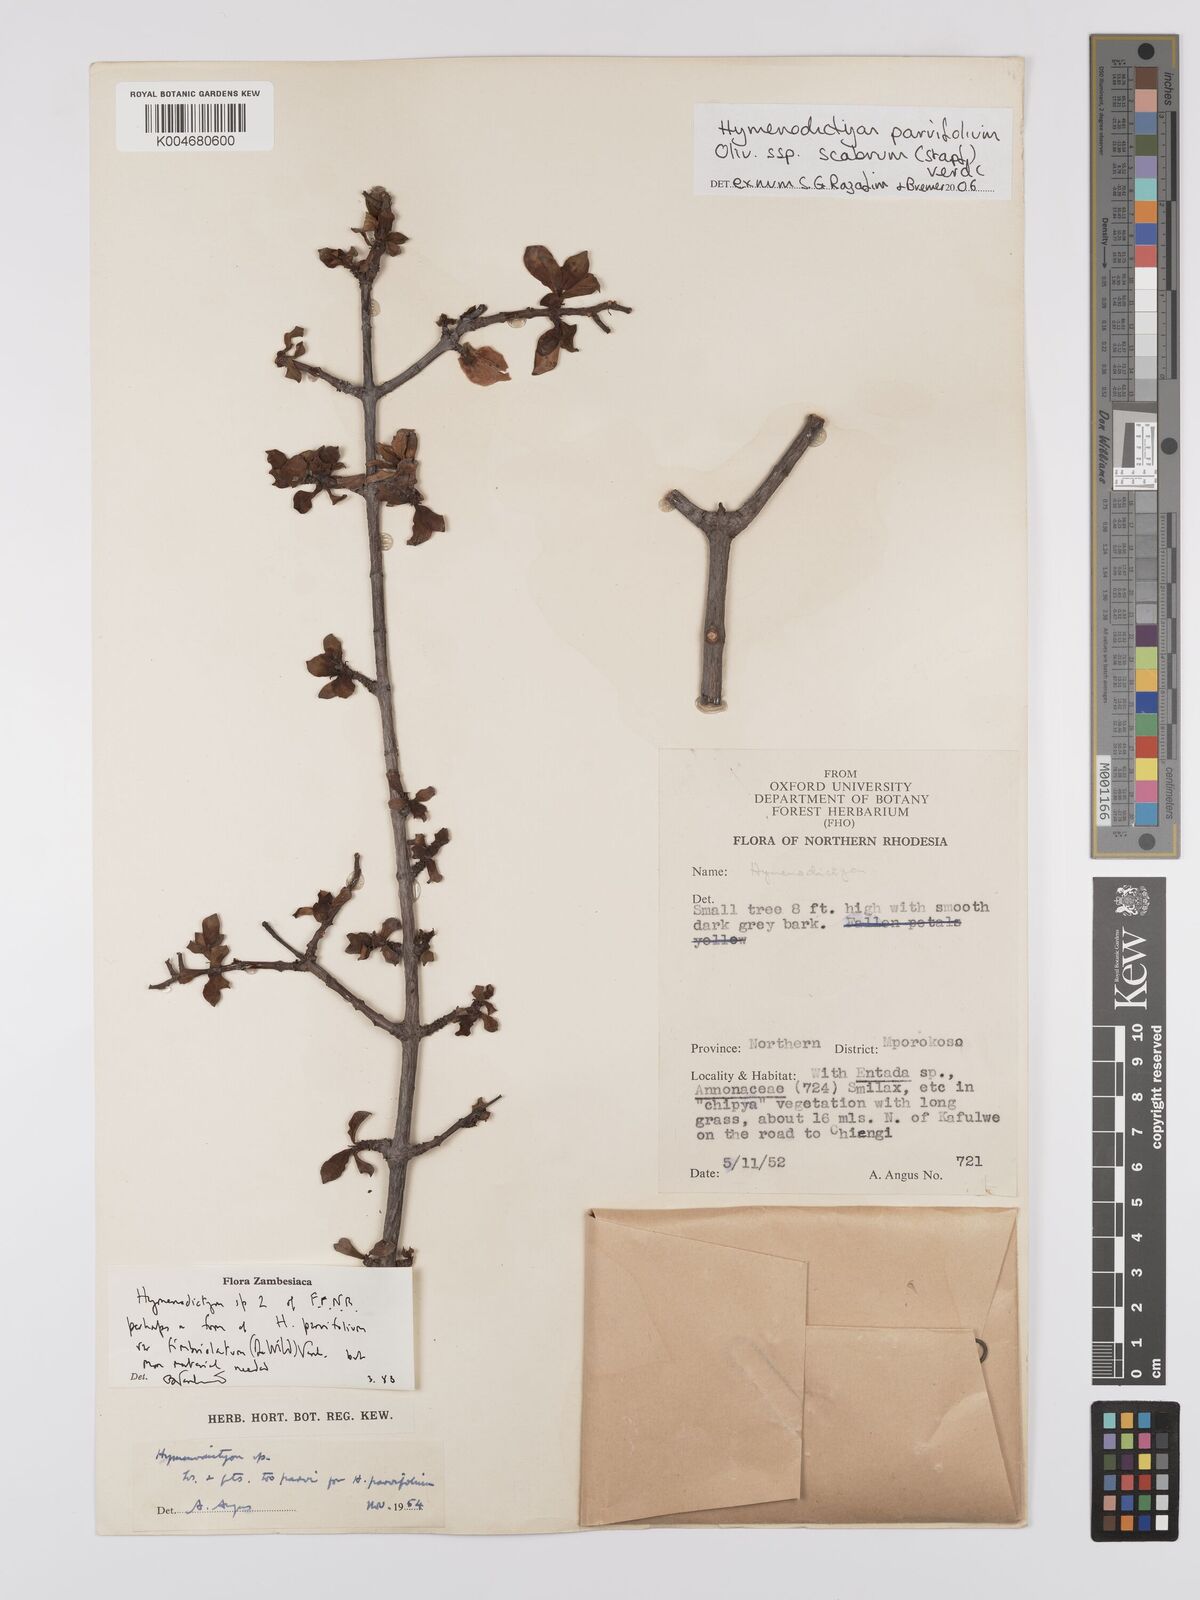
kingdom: Plantae
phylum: Tracheophyta
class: Magnoliopsida
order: Gentianales
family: Rubiaceae
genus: Hymenodictyon
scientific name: Hymenodictyon scabrum
